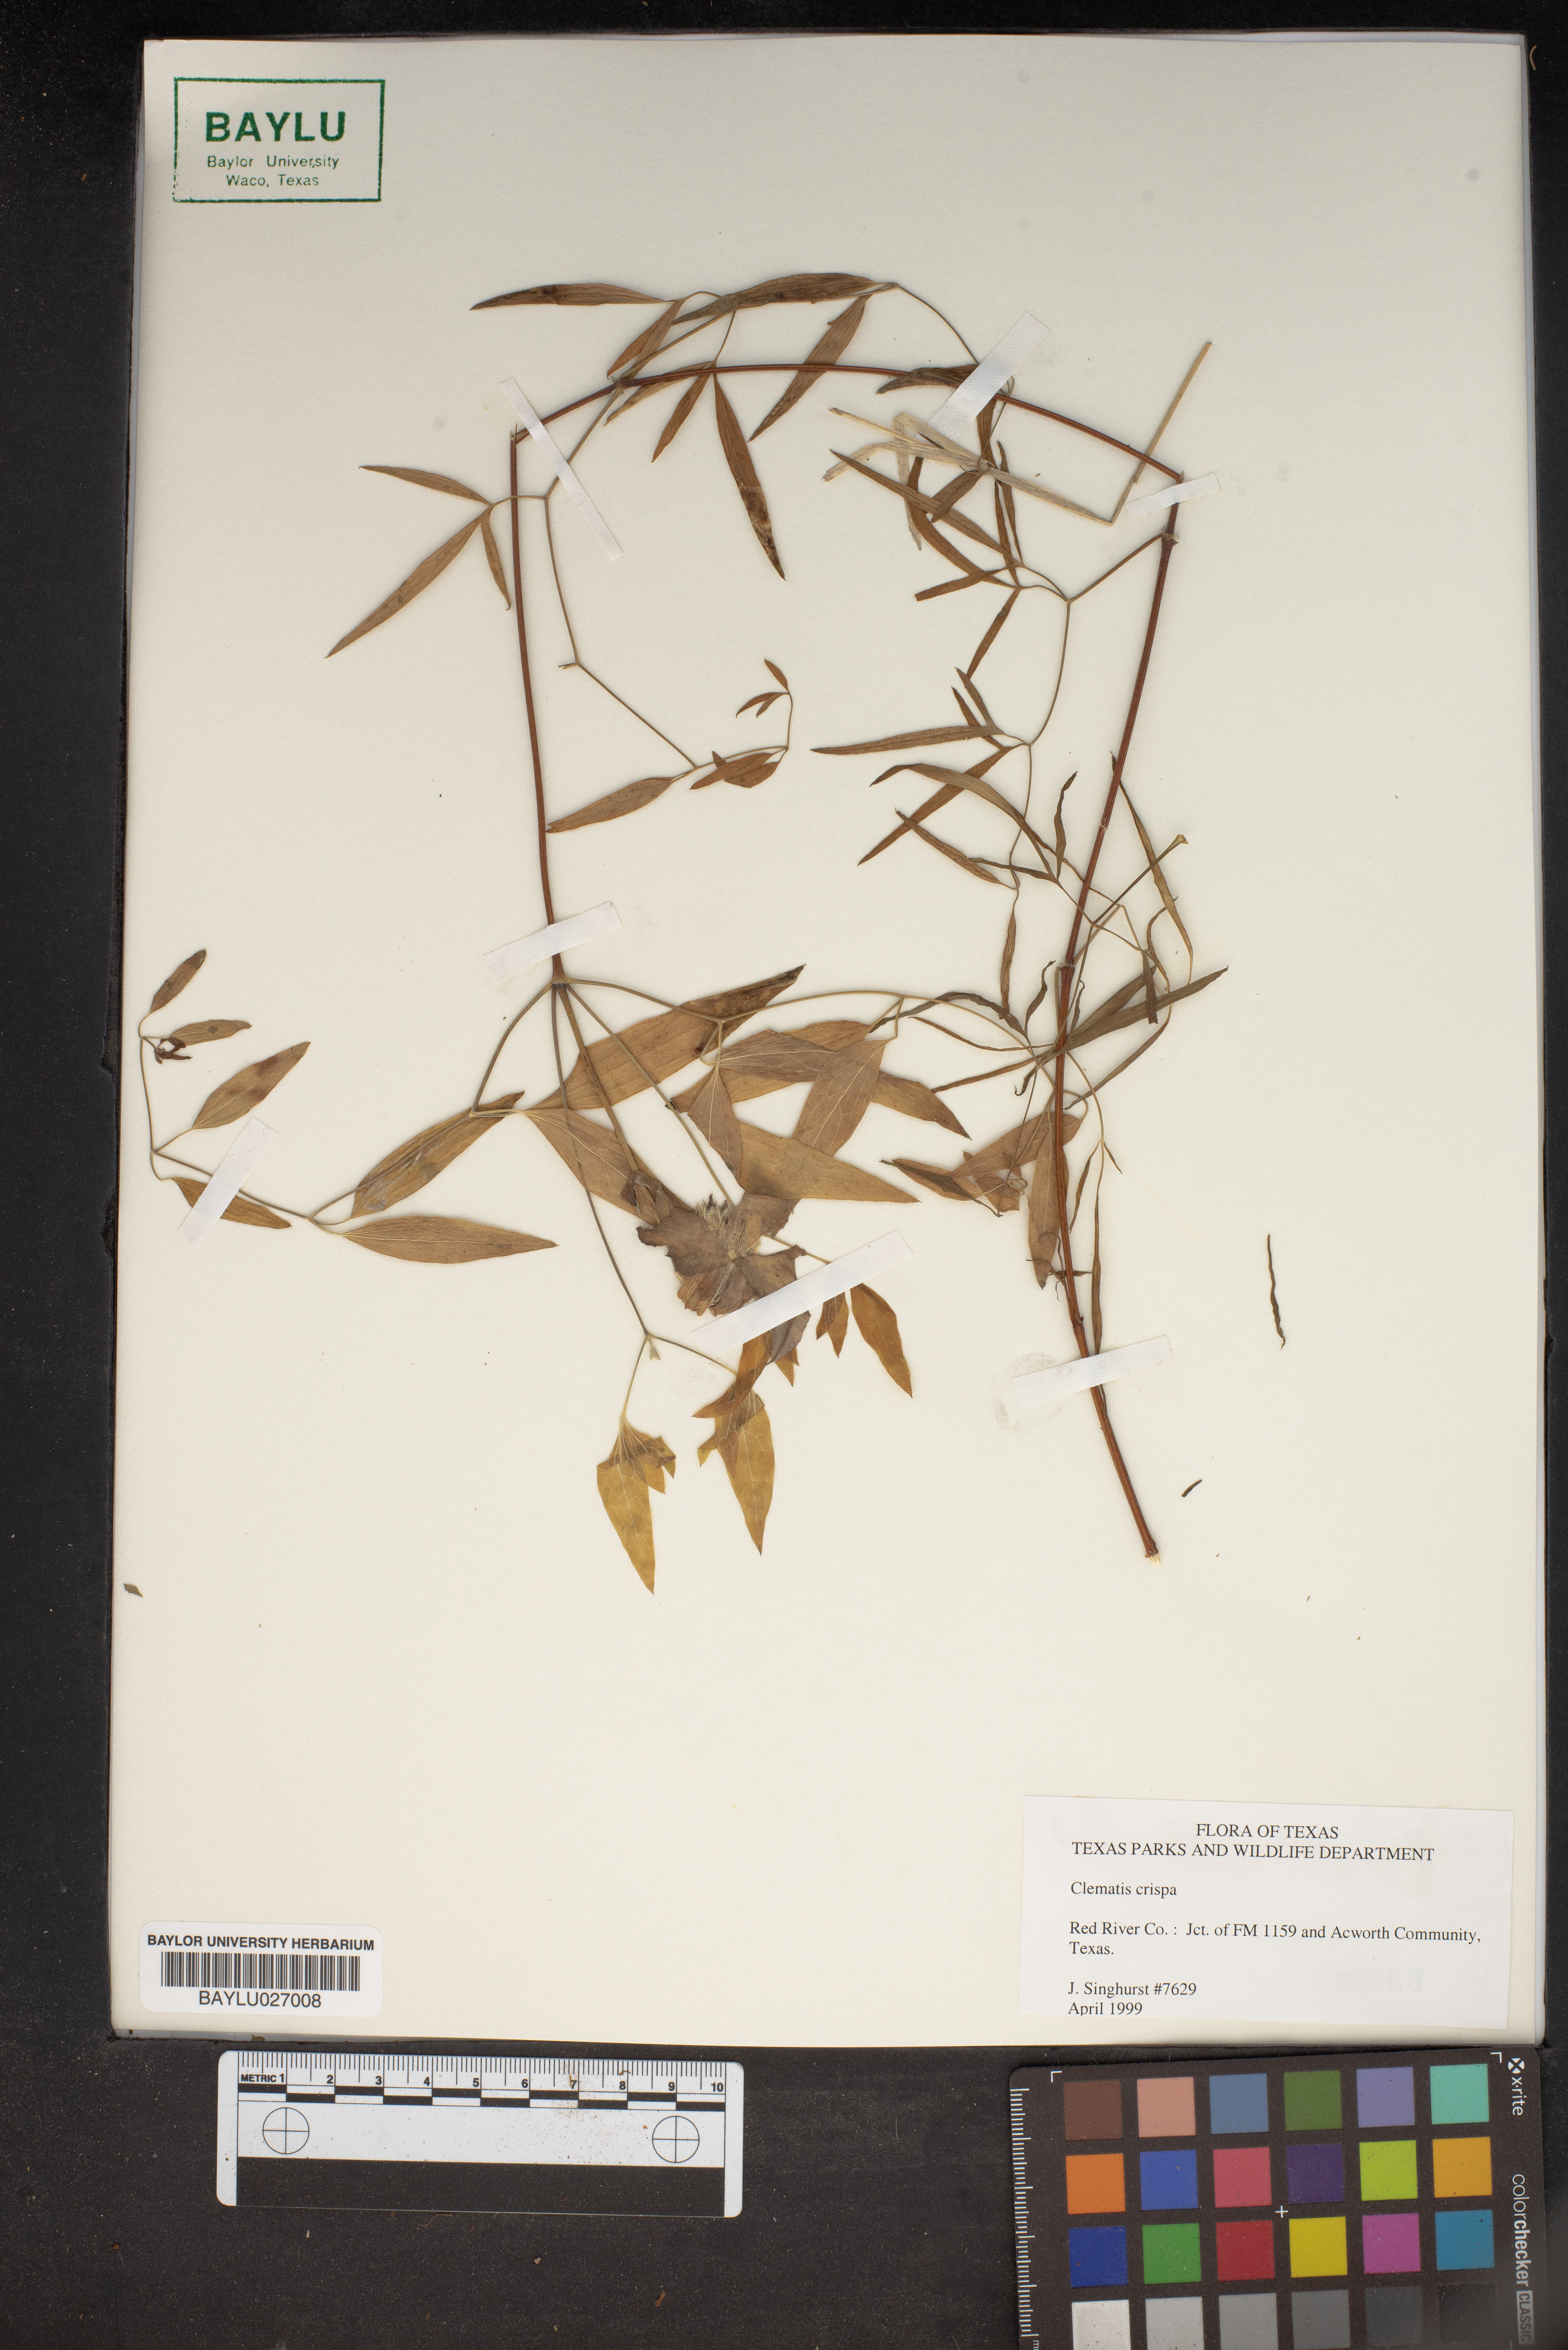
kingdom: Plantae
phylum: Tracheophyta
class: Magnoliopsida
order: Ranunculales
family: Ranunculaceae
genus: Clematis
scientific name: Clematis crispa
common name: Curly clematis
